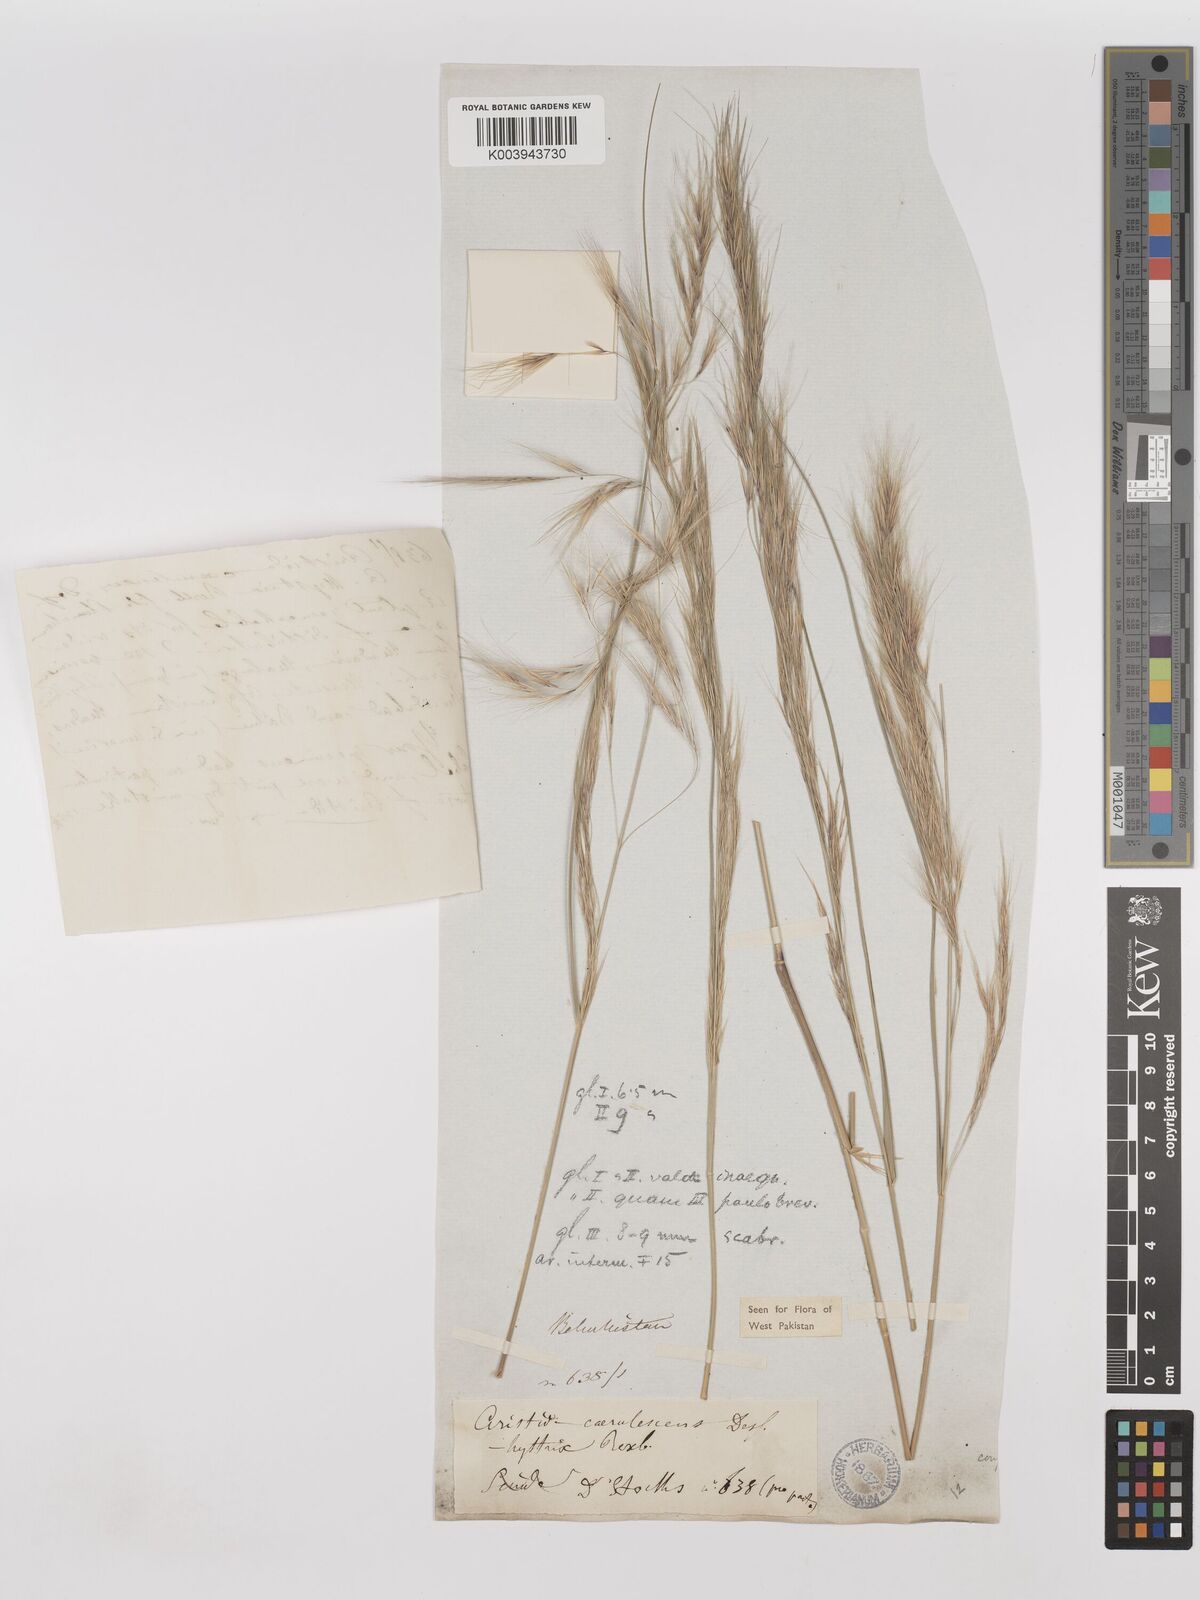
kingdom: Plantae
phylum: Tracheophyta
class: Liliopsida
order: Poales
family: Poaceae
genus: Aristida
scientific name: Aristida adscensionis
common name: Sixweeks threeawn
